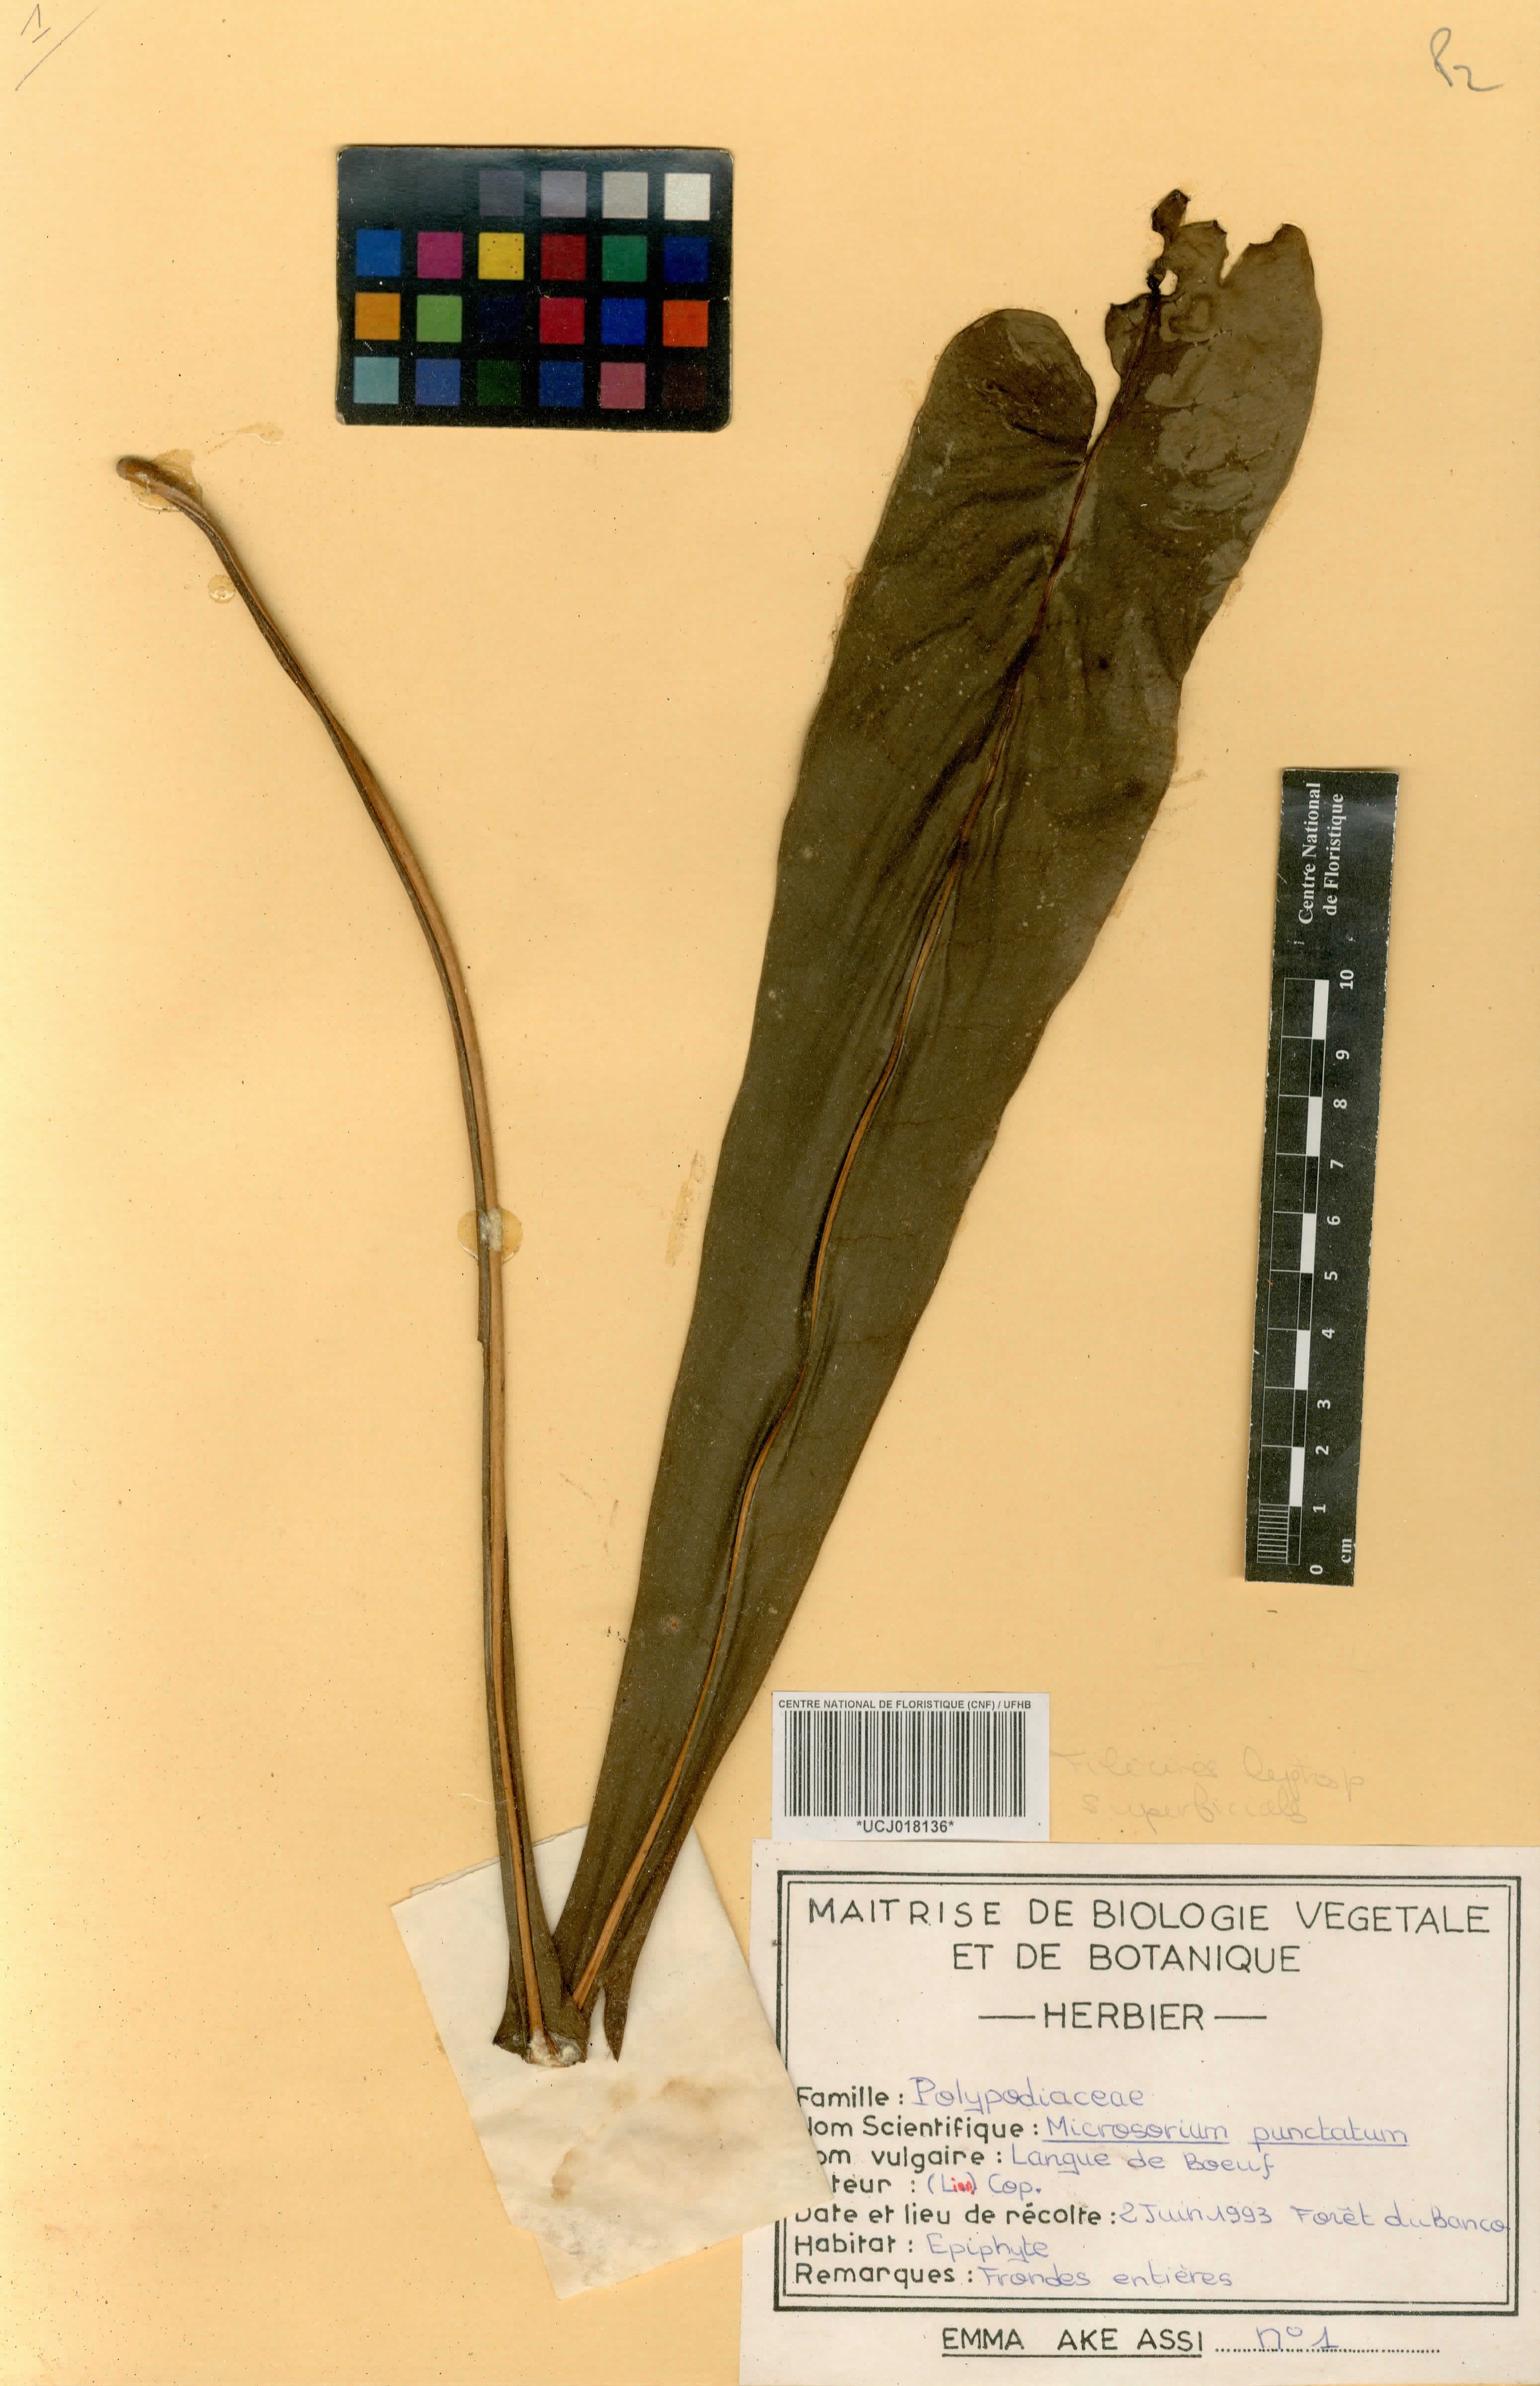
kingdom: Plantae
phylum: Tracheophyta
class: Polypodiopsida
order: Polypodiales
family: Polypodiaceae
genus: Microsorum
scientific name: Microsorum punctatum
